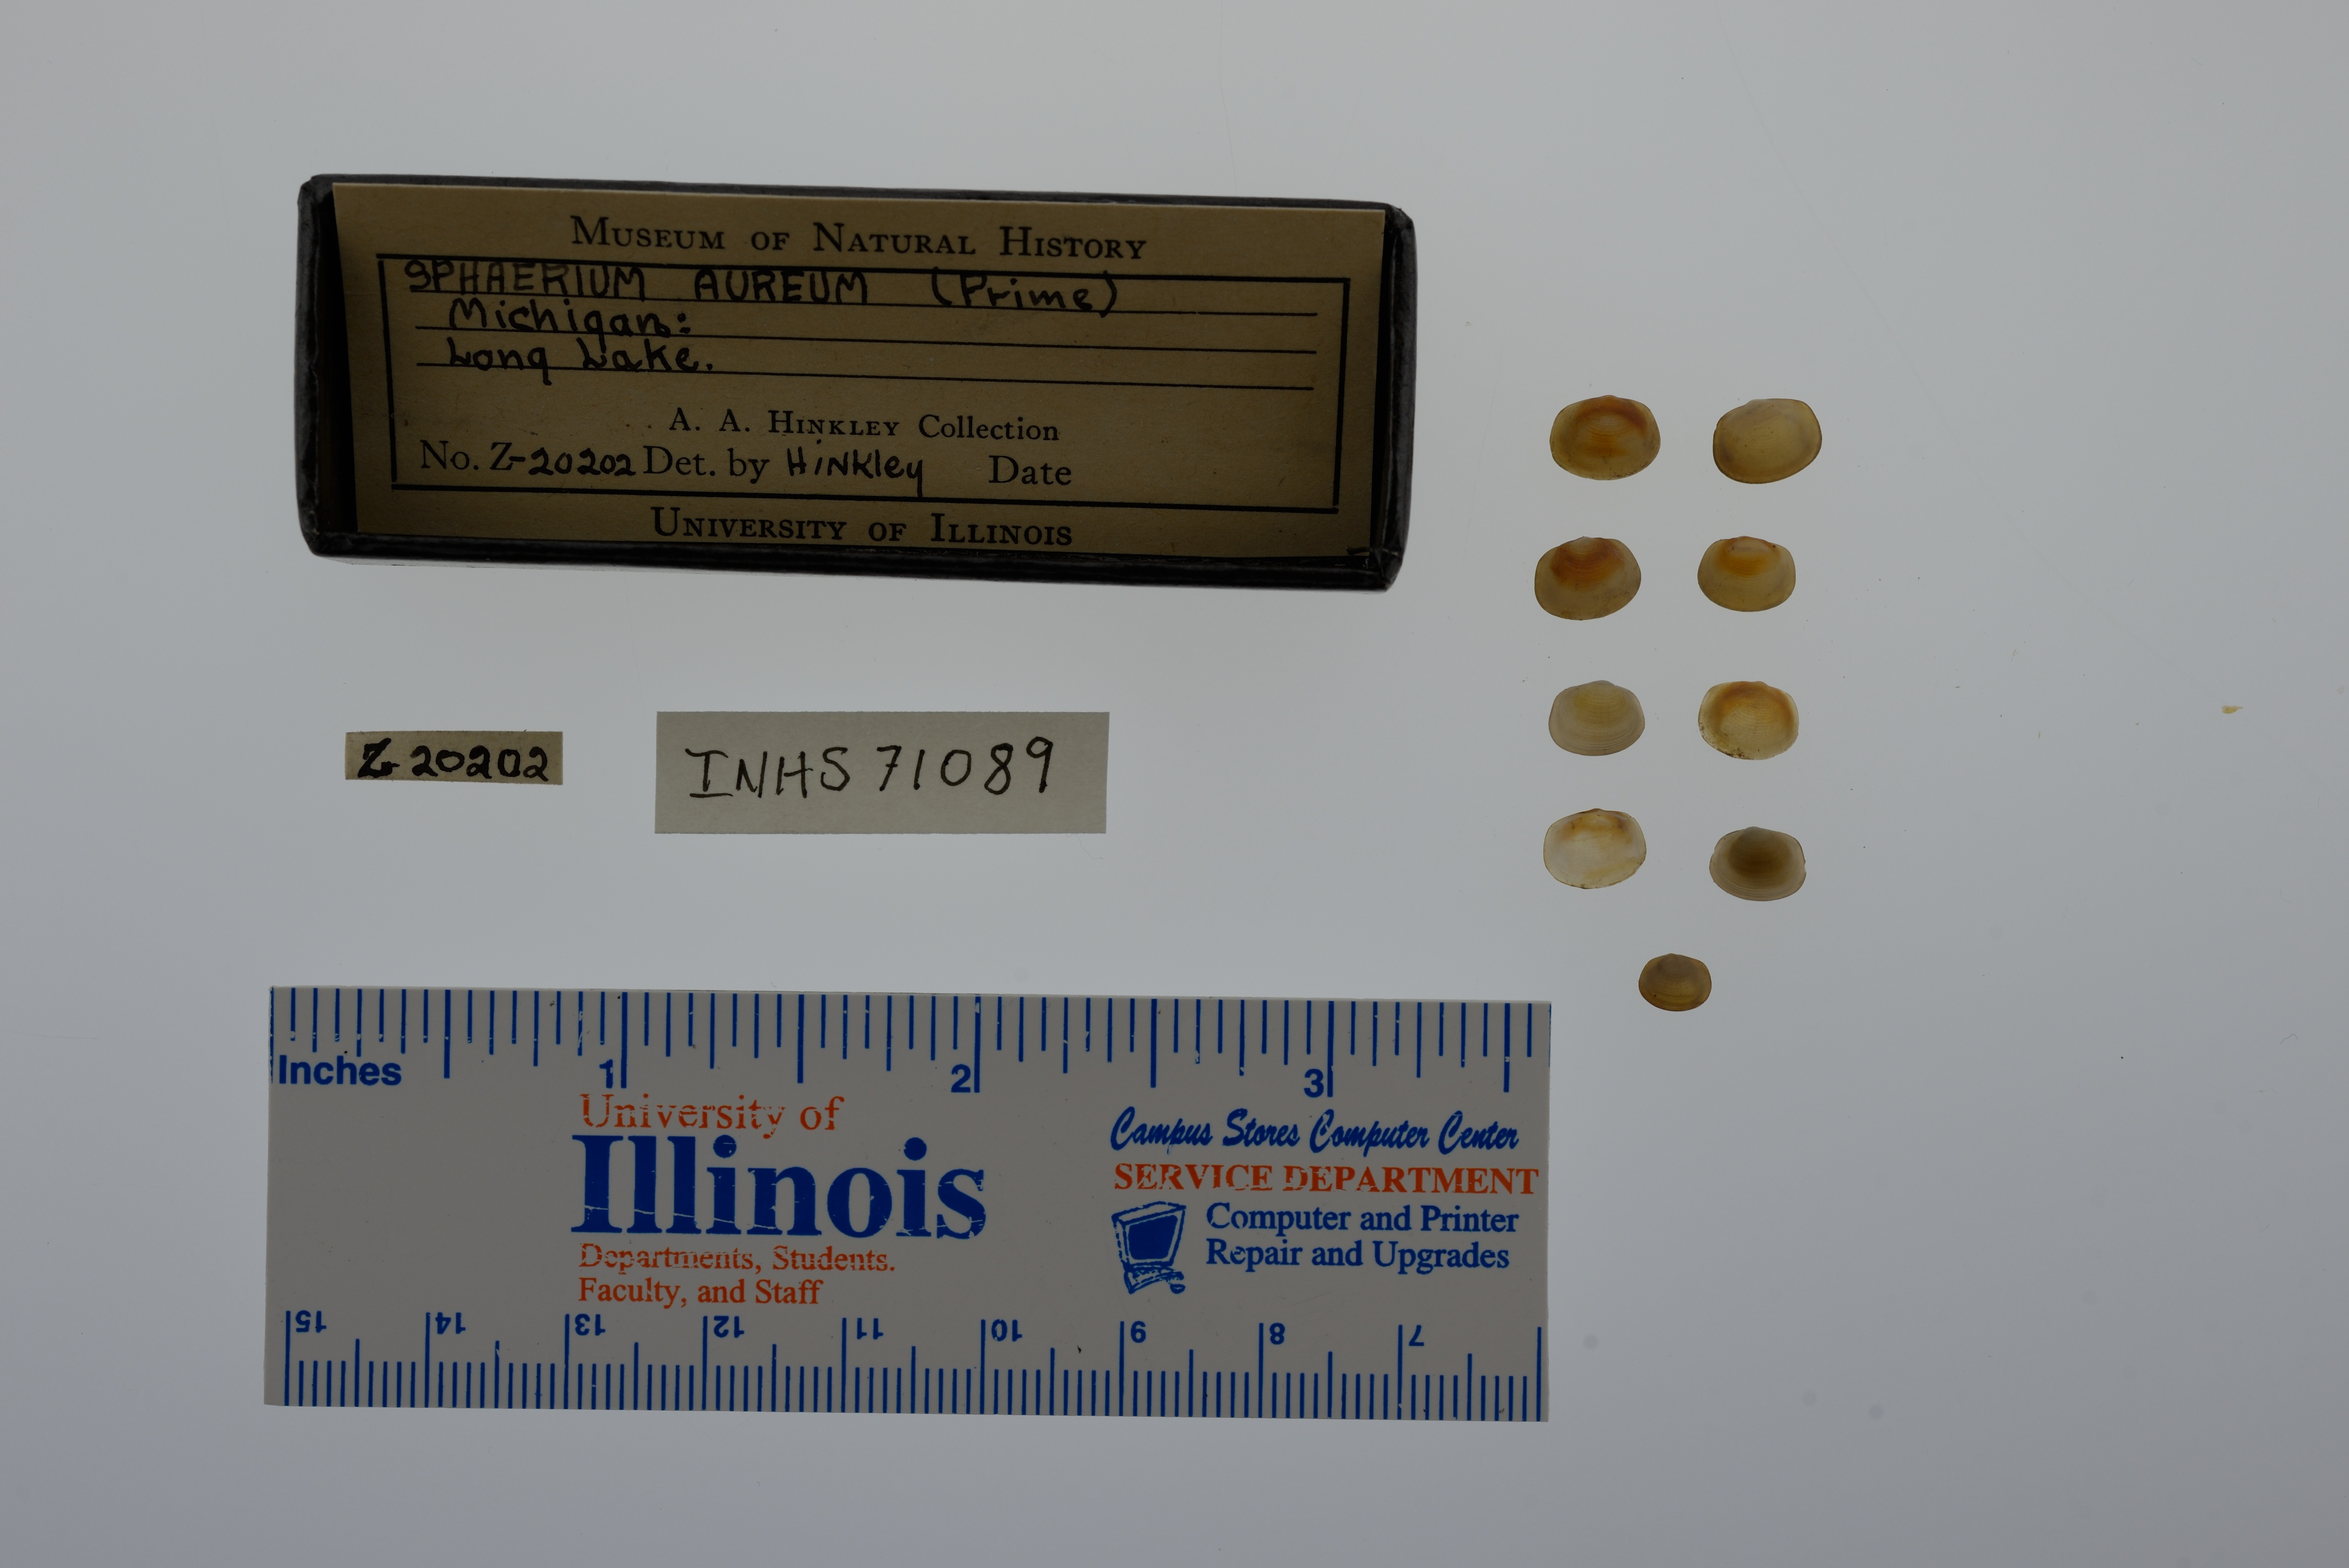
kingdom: Animalia
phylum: Mollusca
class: Bivalvia
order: Sphaeriida
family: Sphaeriidae
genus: Sphaerium
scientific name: Sphaerium striatinum
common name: Striated fingernailclam
